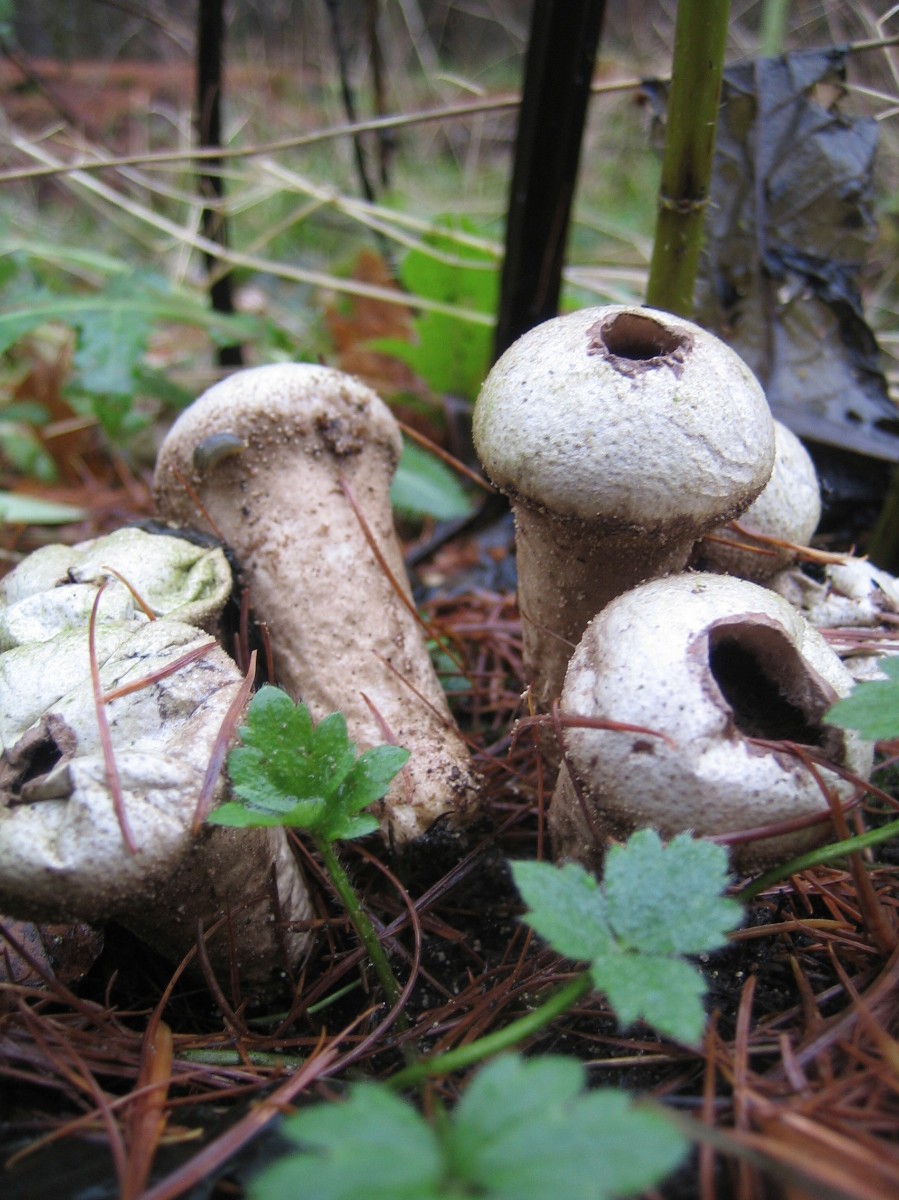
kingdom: Fungi
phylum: Basidiomycota
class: Agaricomycetes
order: Agaricales
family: Lycoperdaceae
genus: Lycoperdon
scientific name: Lycoperdon perlatum
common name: krystal-støvbold
